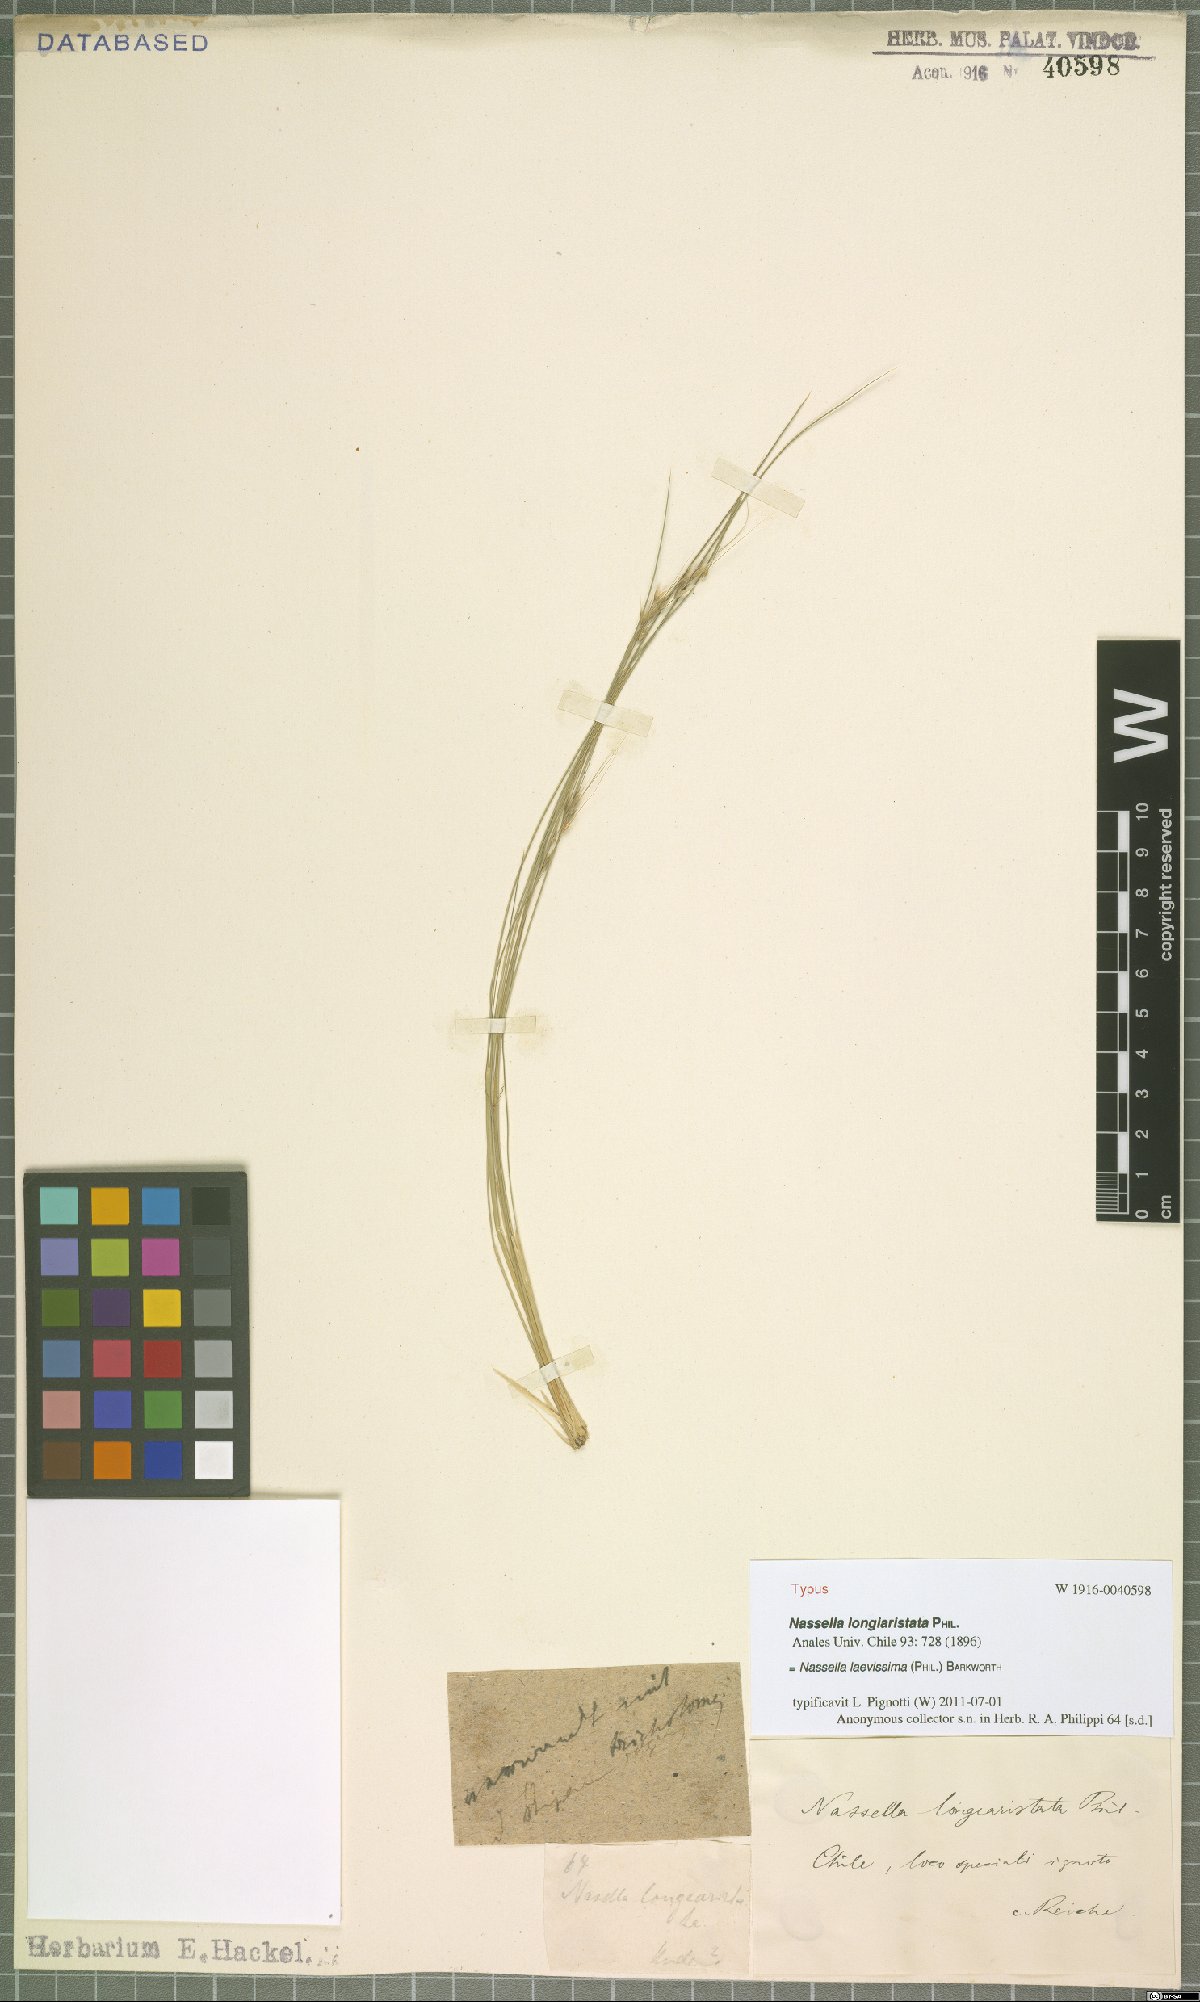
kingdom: Plantae
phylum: Tracheophyta
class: Liliopsida
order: Poales
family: Poaceae
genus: Nassella
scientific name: Nassella laevissima
